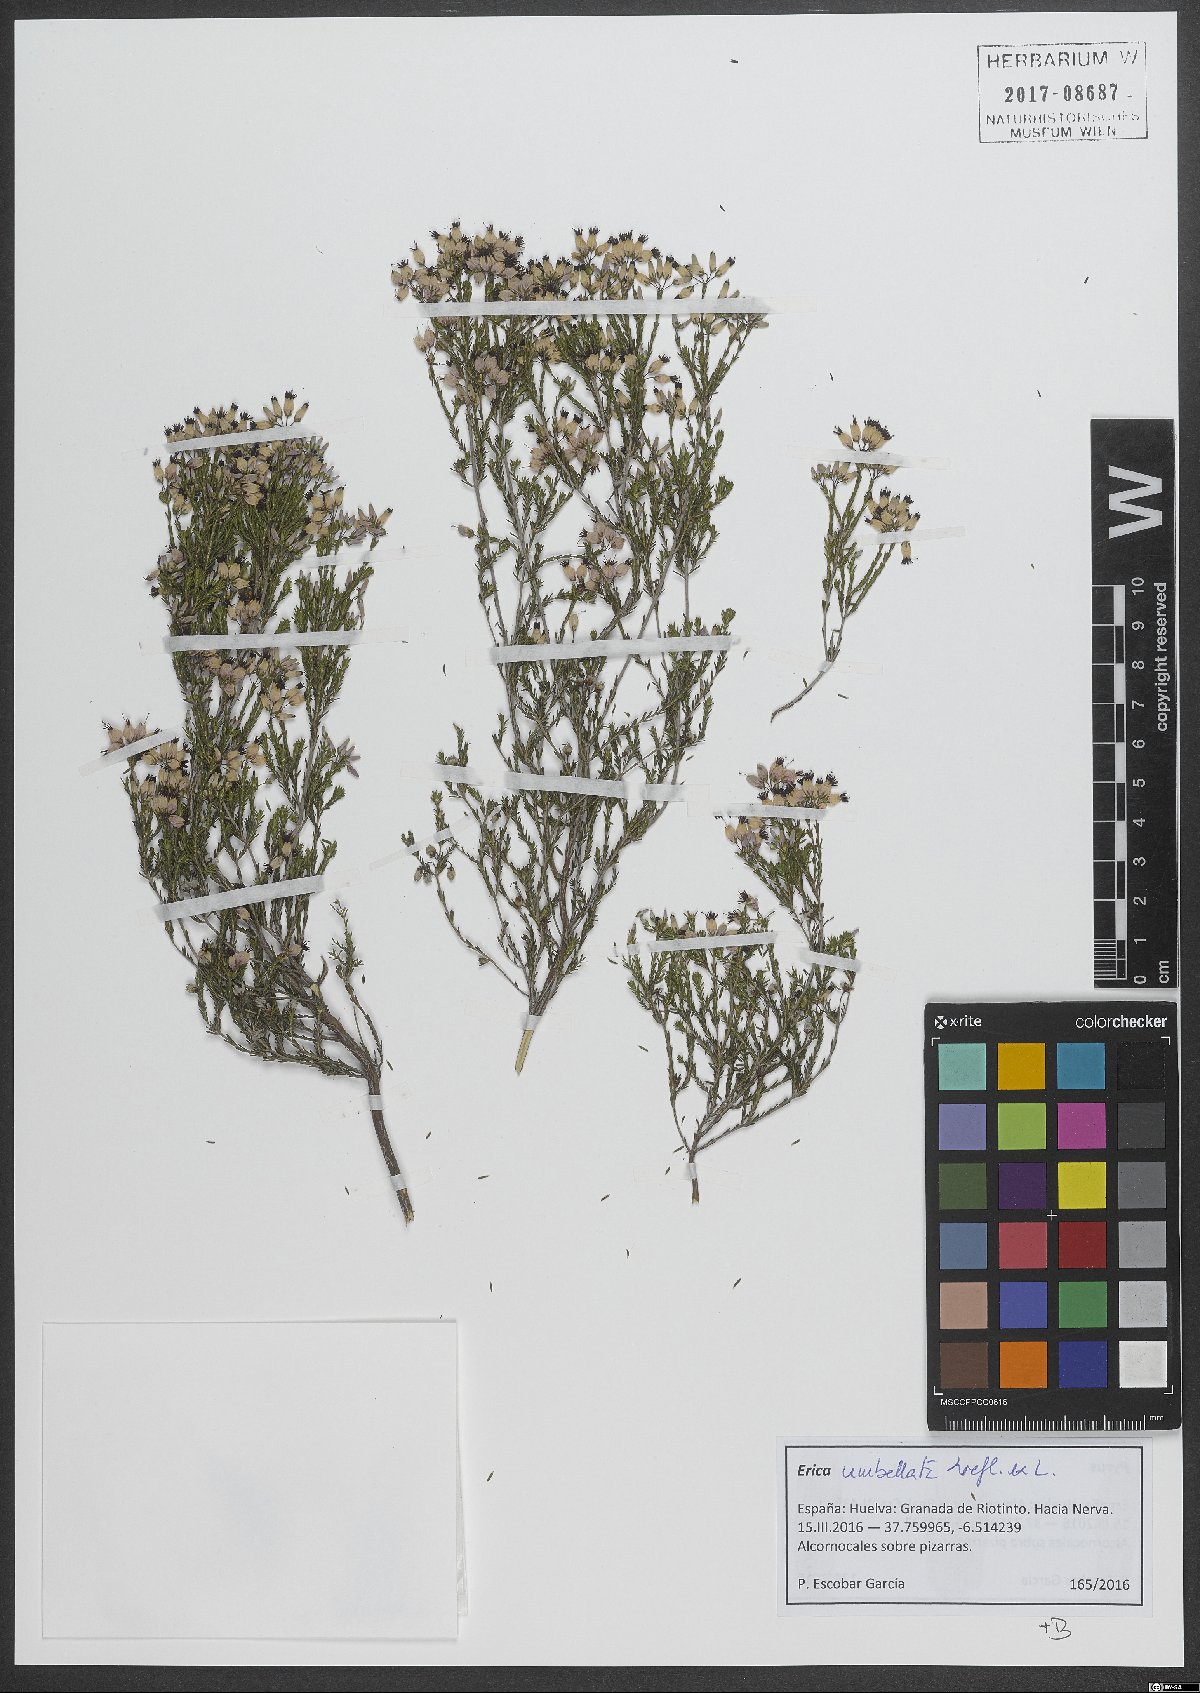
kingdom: Plantae
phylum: Tracheophyta
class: Magnoliopsida
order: Ericales
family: Ericaceae
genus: Erica
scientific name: Erica umbellata
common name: Dwarf spanish heath
